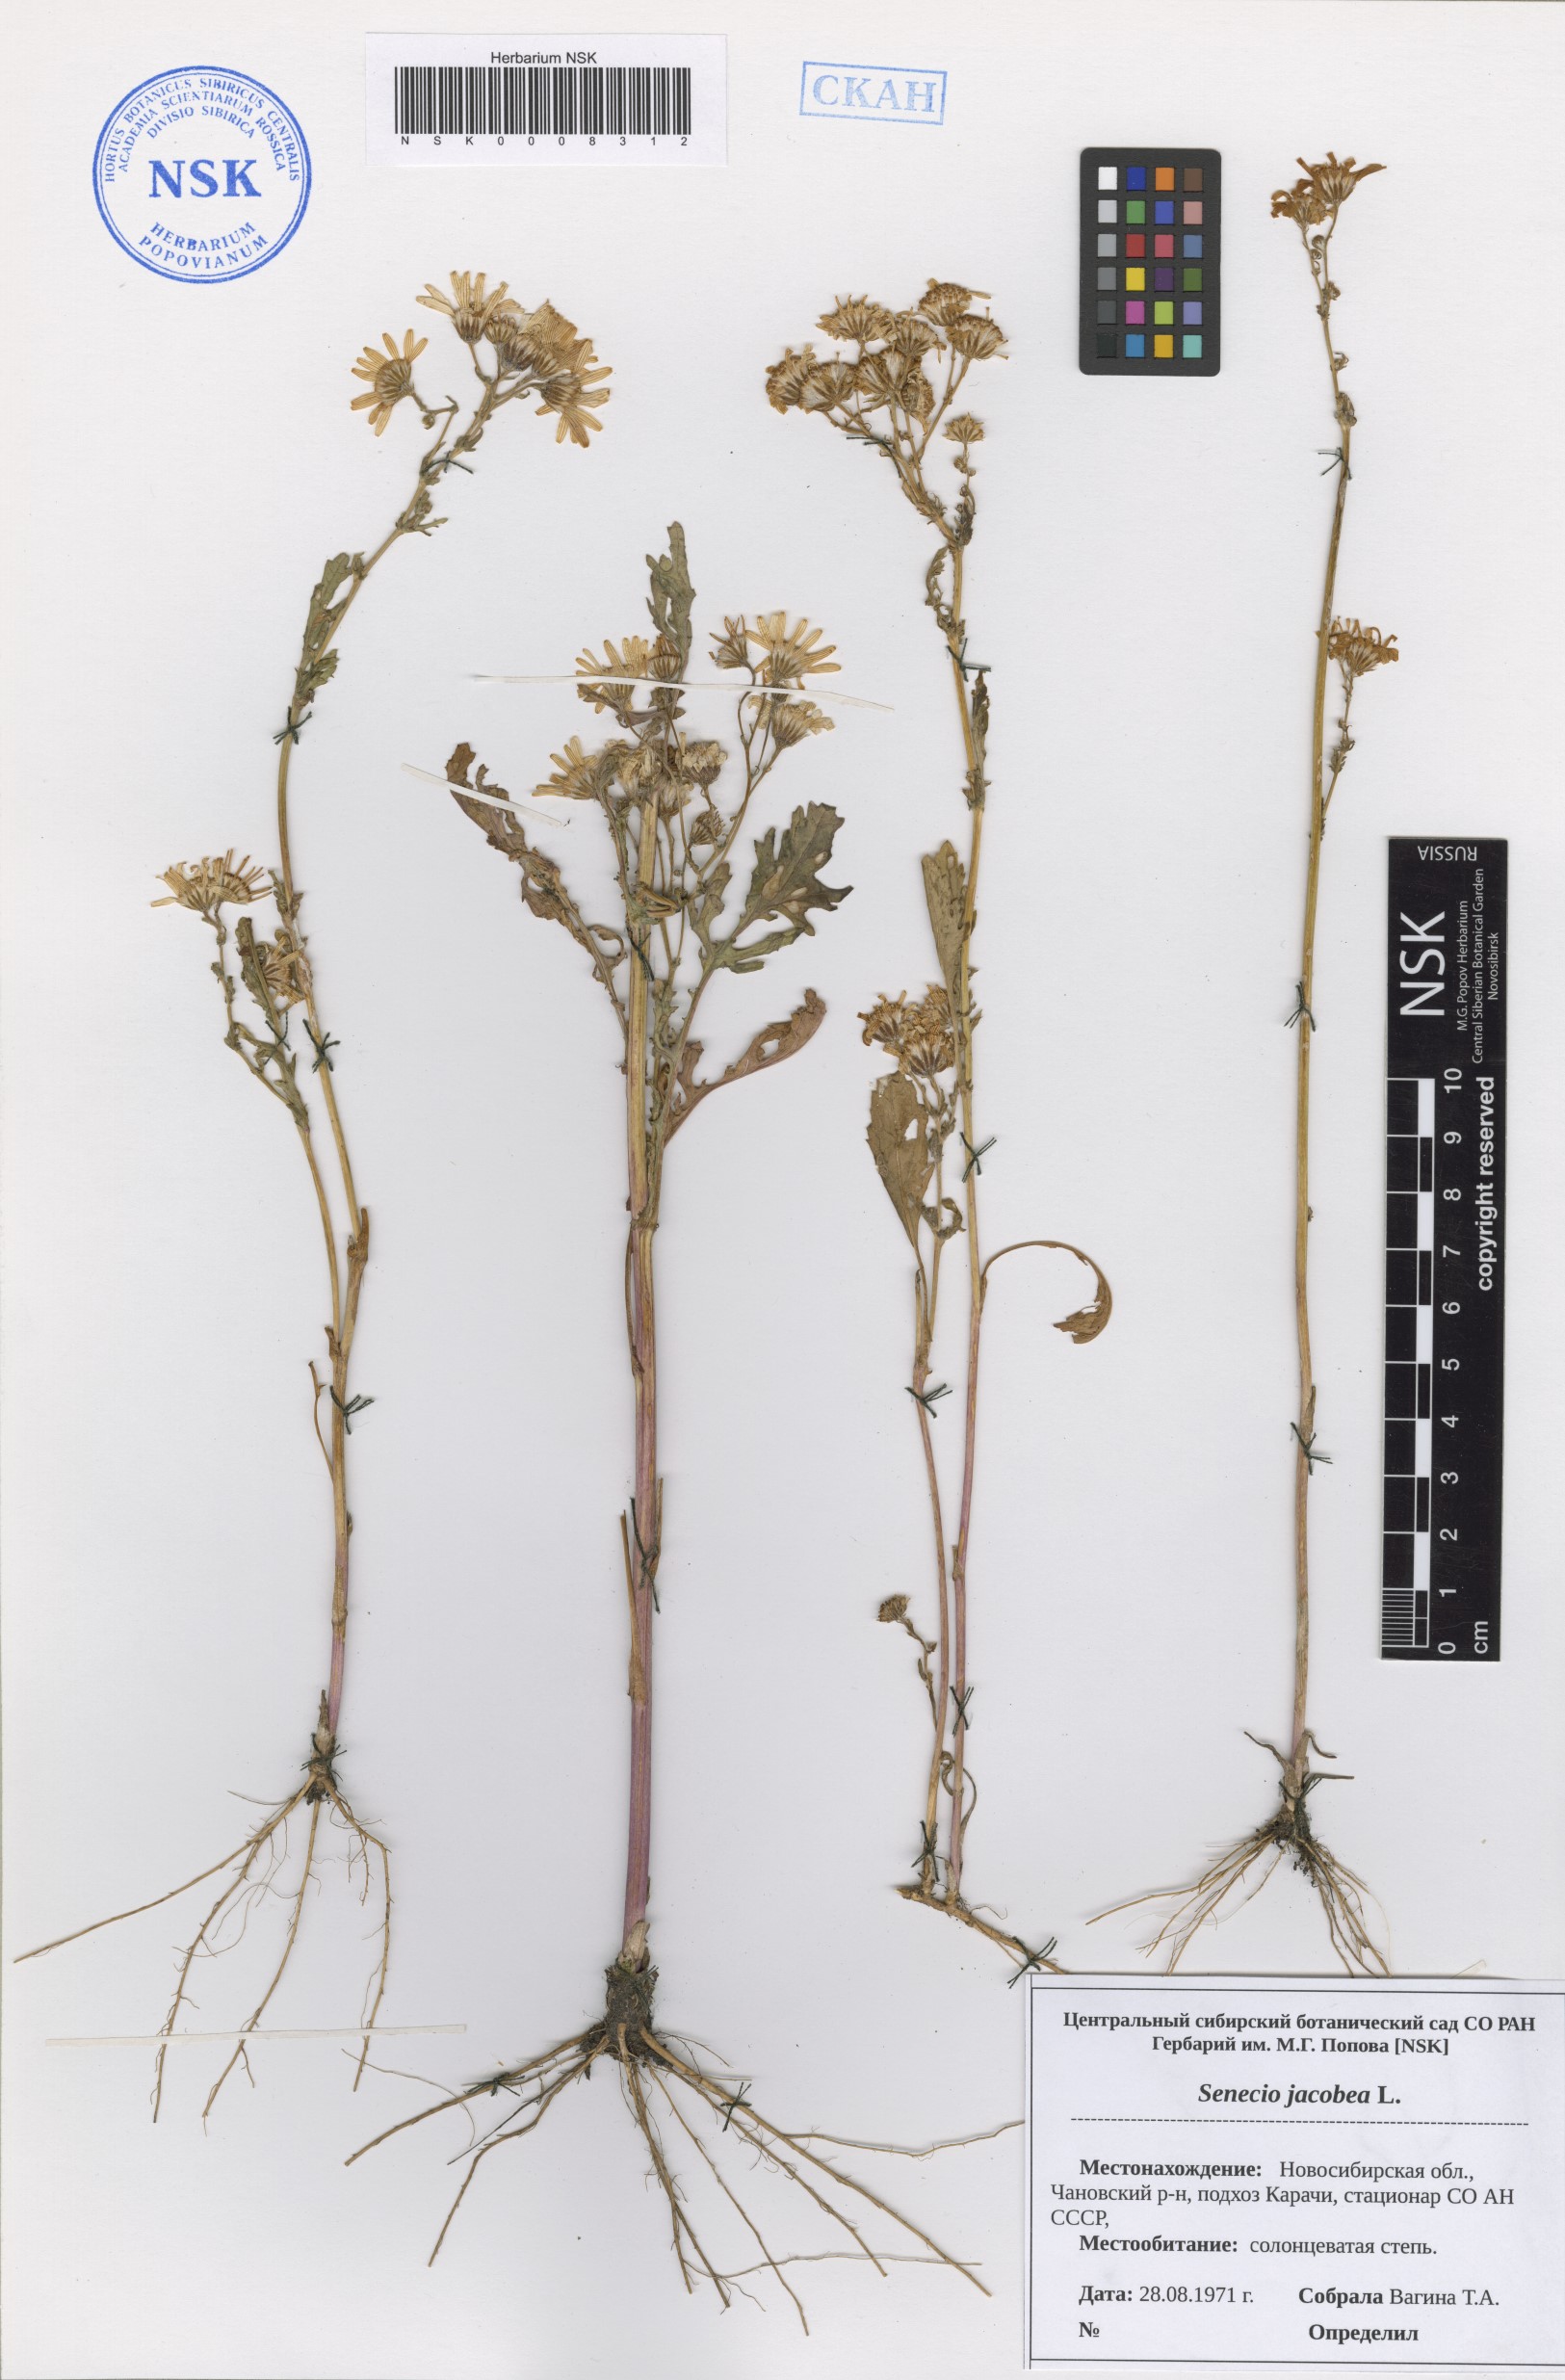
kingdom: Plantae
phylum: Tracheophyta
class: Magnoliopsida
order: Asterales
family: Asteraceae
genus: Jacobaea
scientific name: Jacobaea vulgaris
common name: Stinking willie
